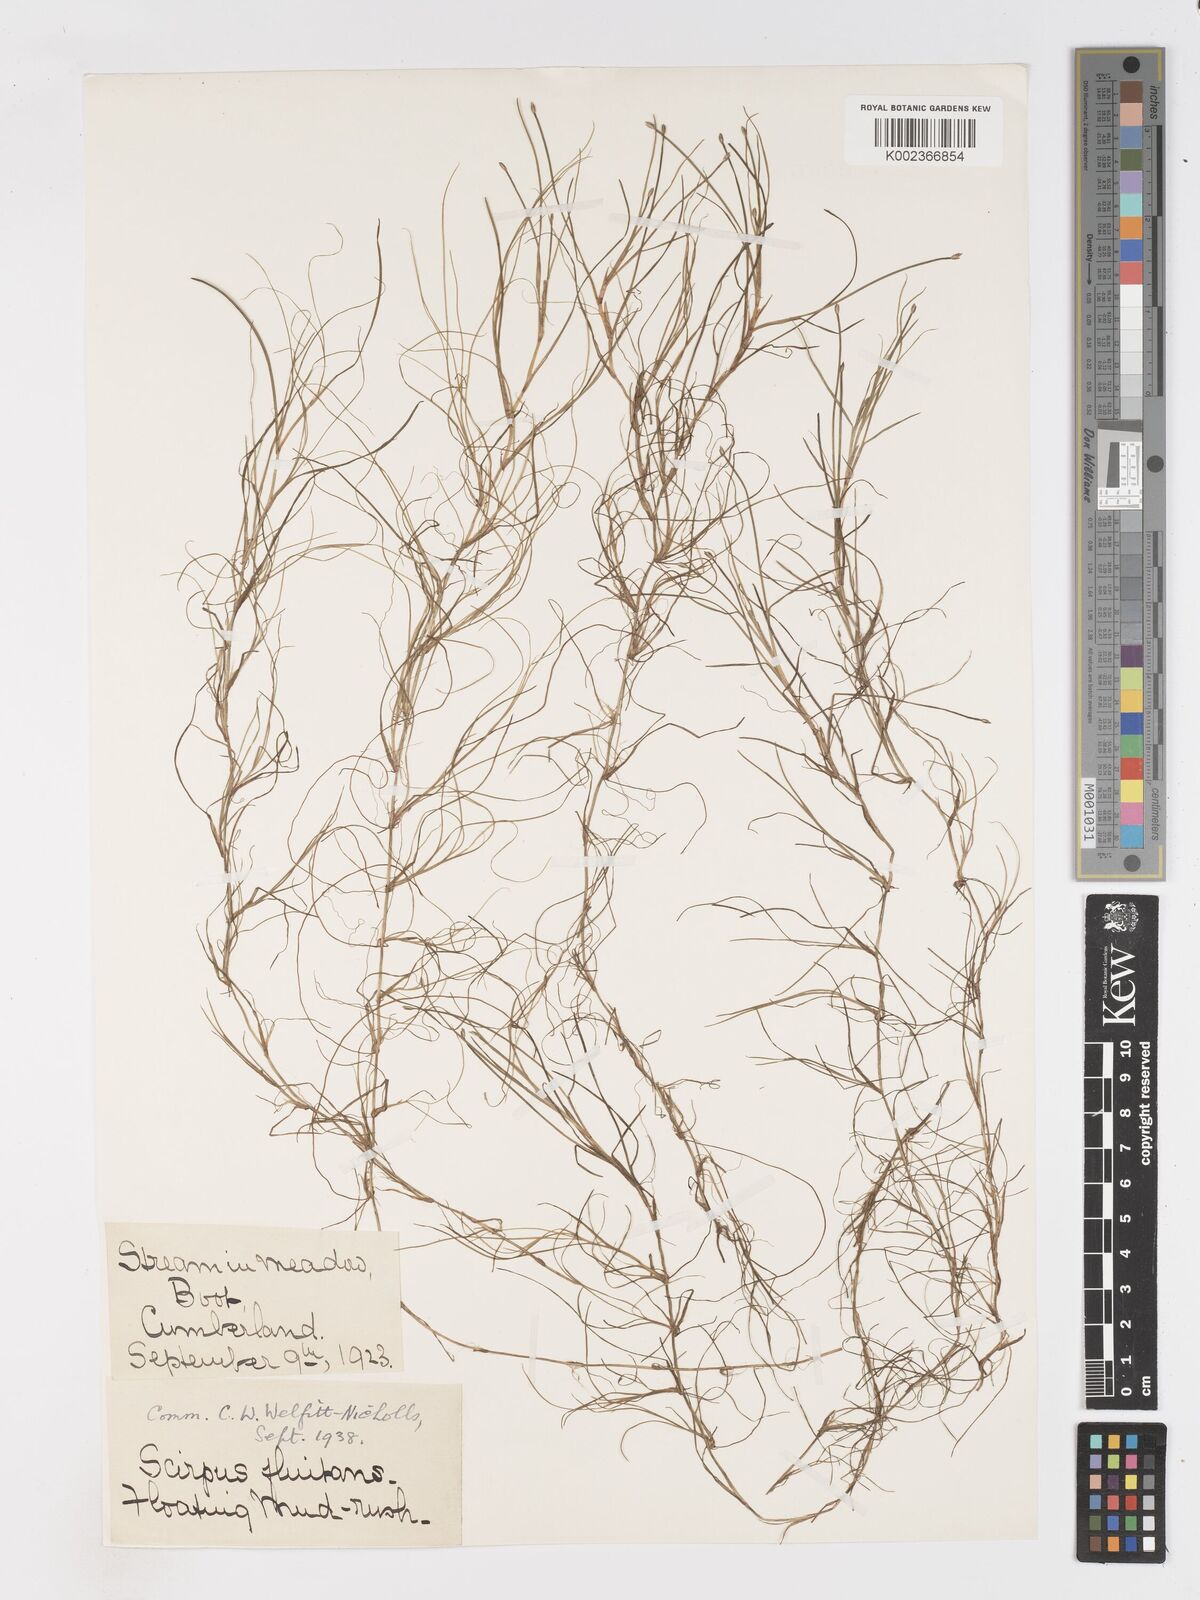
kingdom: Plantae
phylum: Tracheophyta
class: Liliopsida
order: Poales
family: Cyperaceae
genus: Isolepis
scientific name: Isolepis fluitans
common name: Floating club-rush
